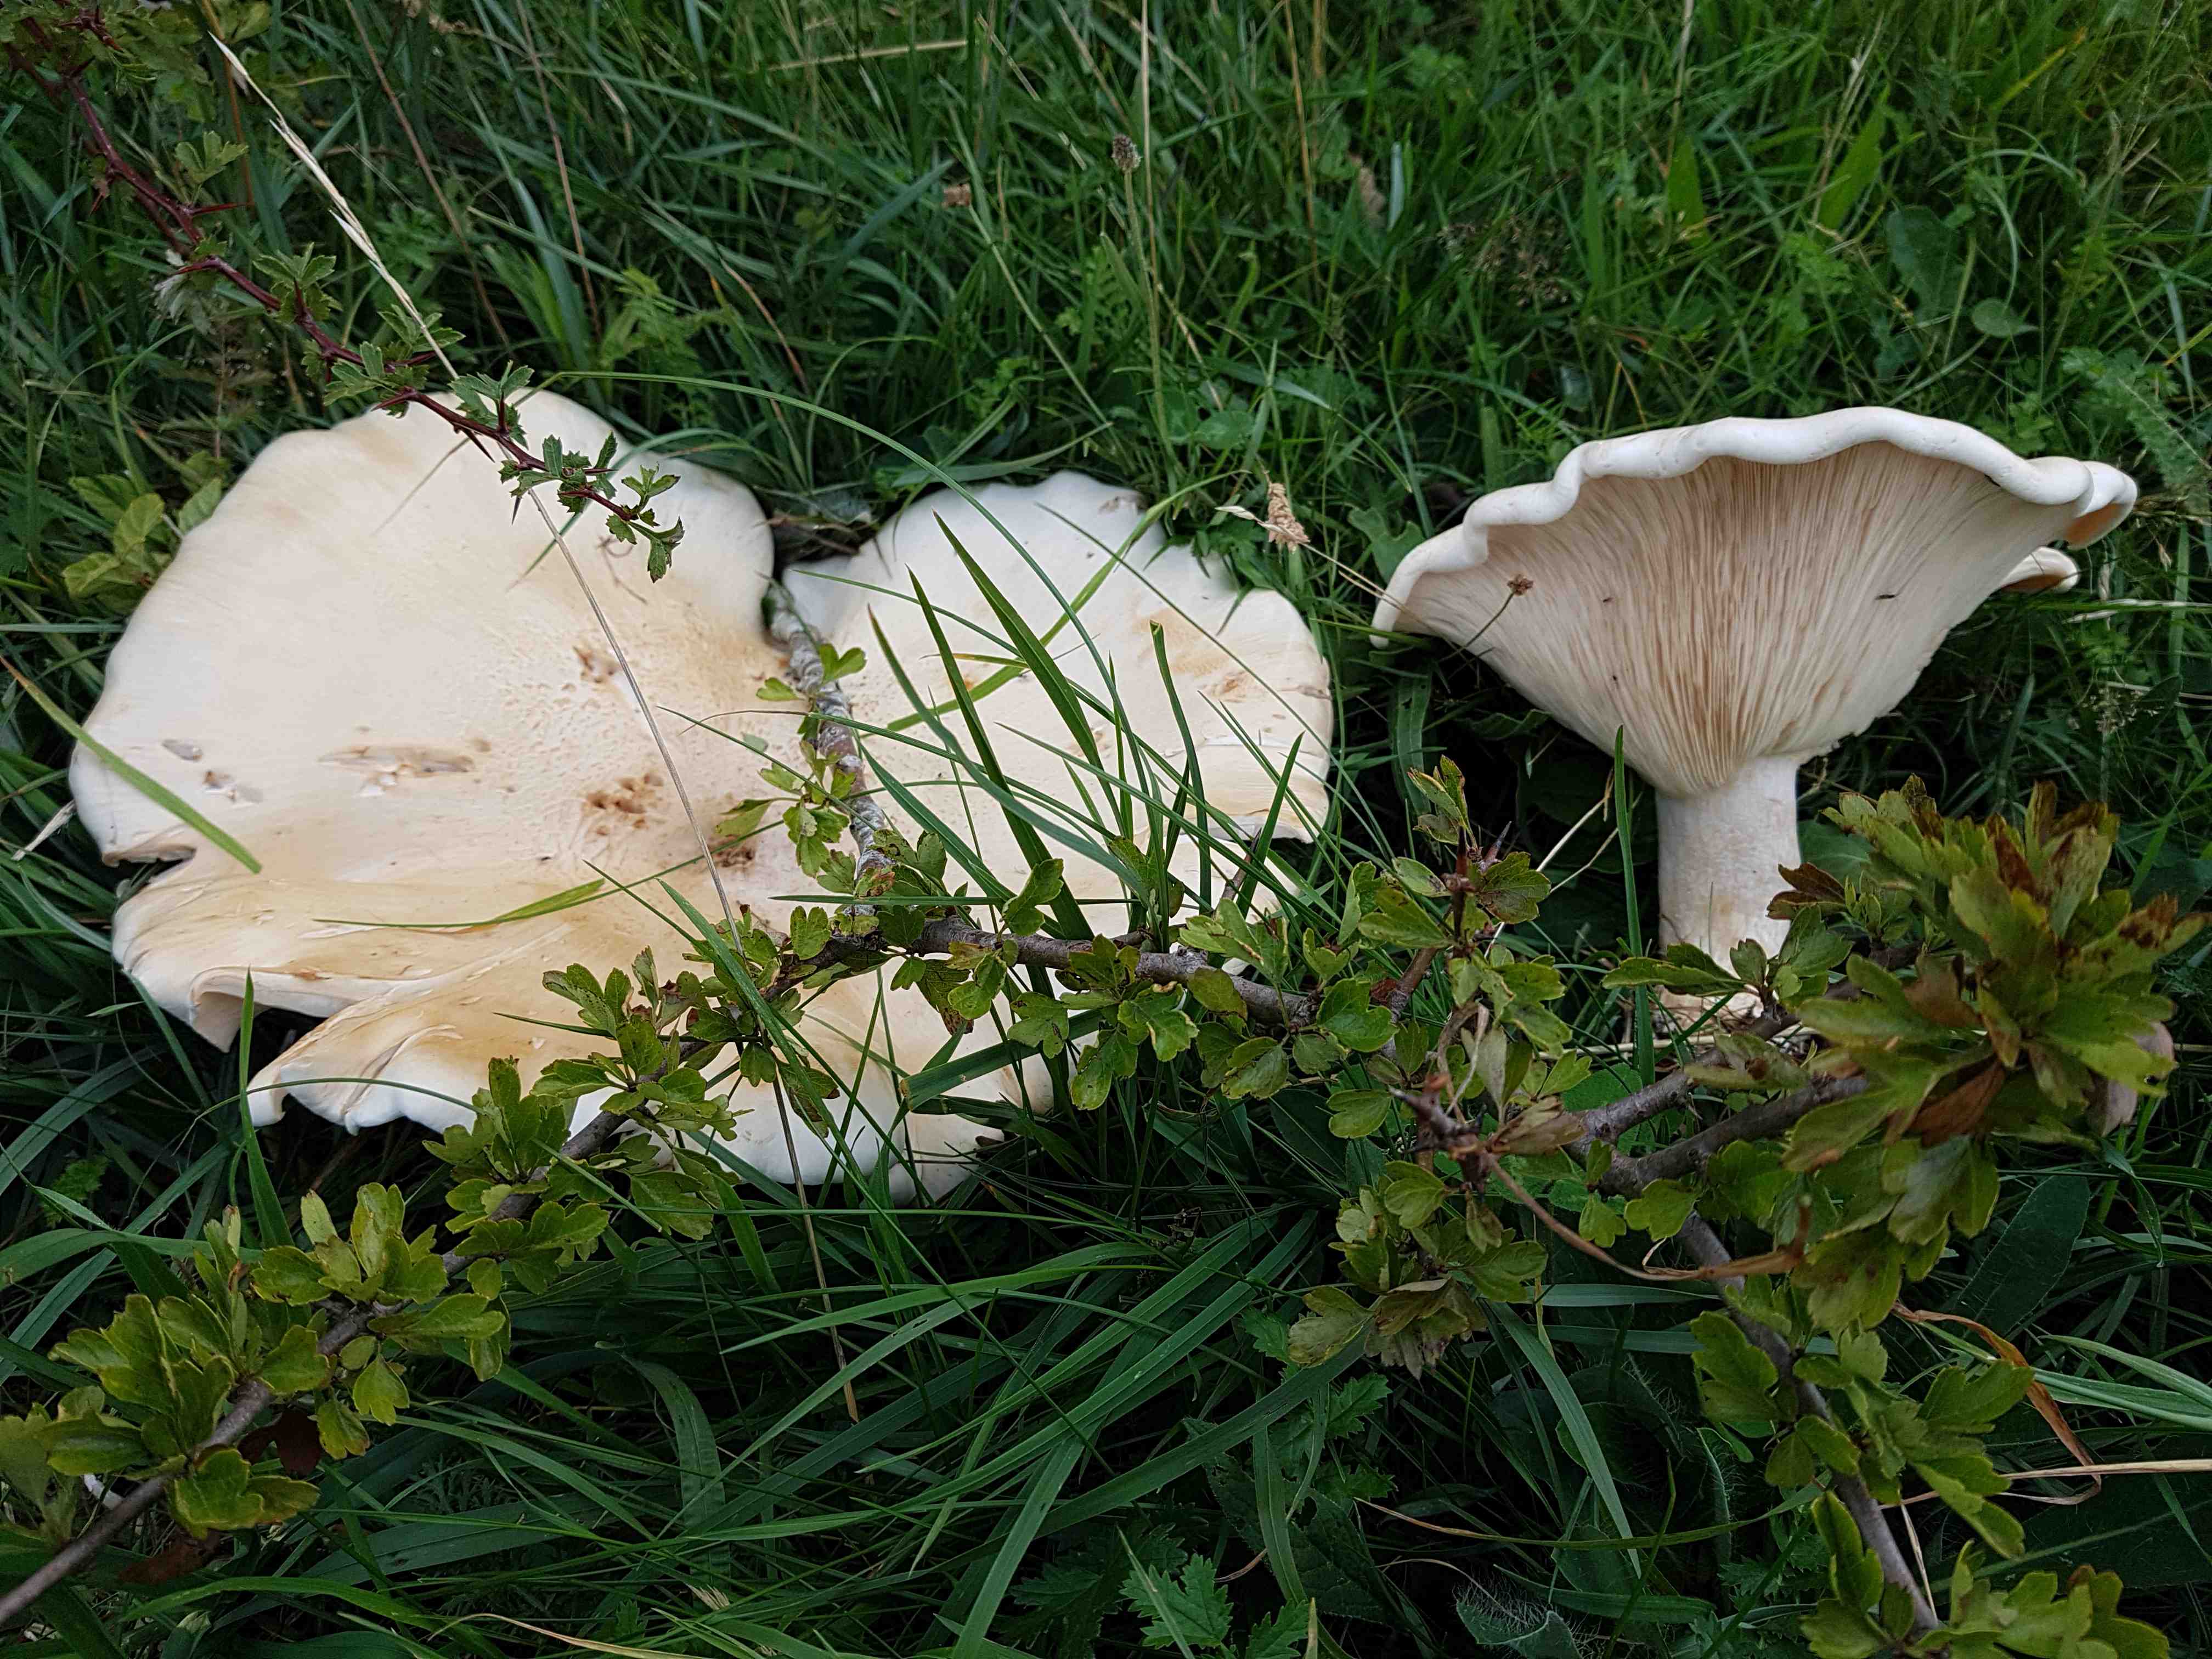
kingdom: Fungi
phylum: Basidiomycota
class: Agaricomycetes
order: Agaricales
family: Tricholomataceae
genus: Aspropaxillus
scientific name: Aspropaxillus giganteus
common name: kæmpe-tragtridderhat
